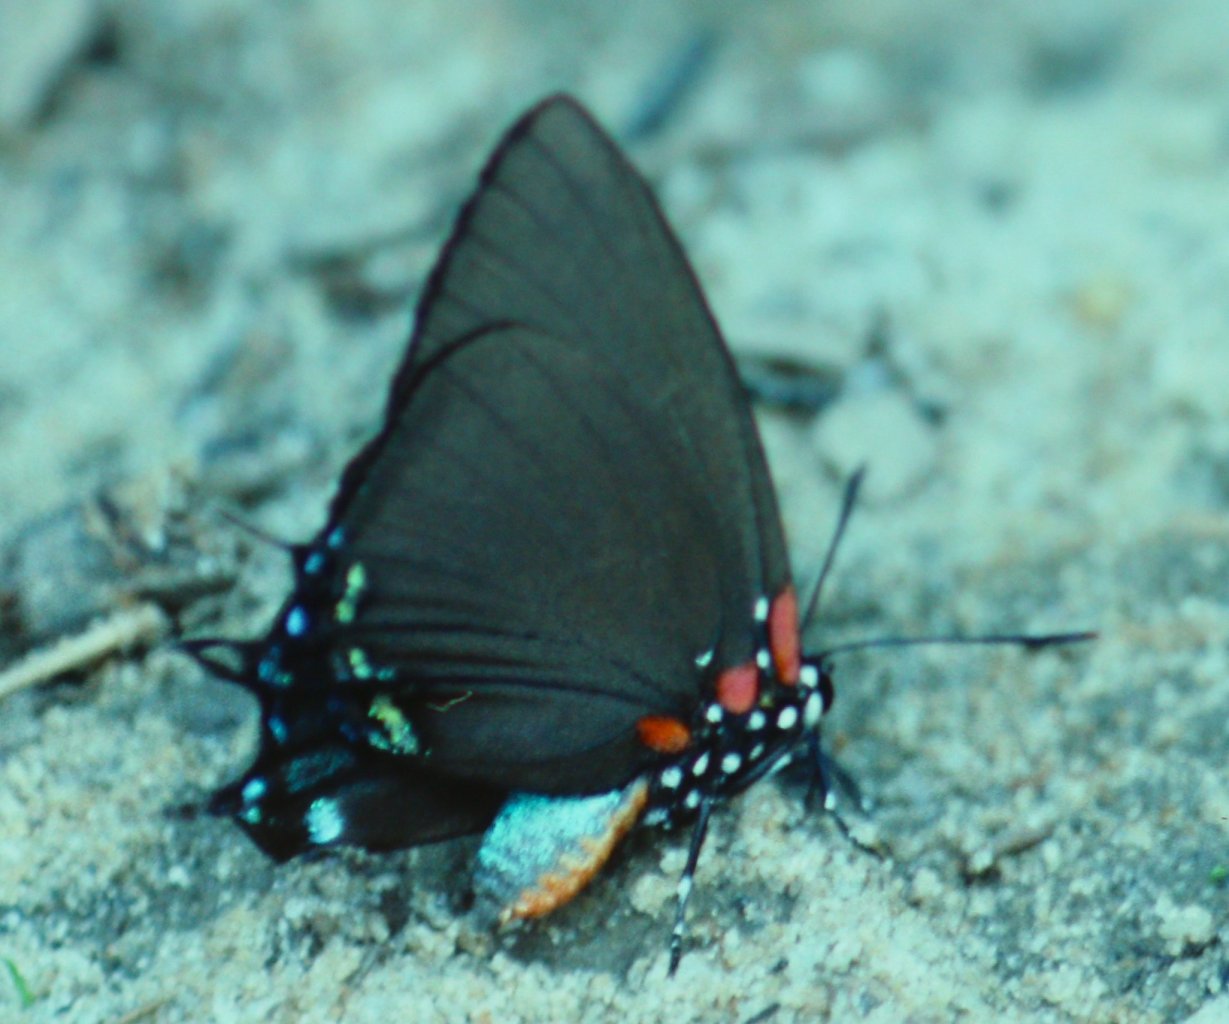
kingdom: Animalia
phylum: Arthropoda
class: Insecta
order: Lepidoptera
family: Lycaenidae
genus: Atlides
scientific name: Atlides halesus
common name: Great Purple Hairstreak
